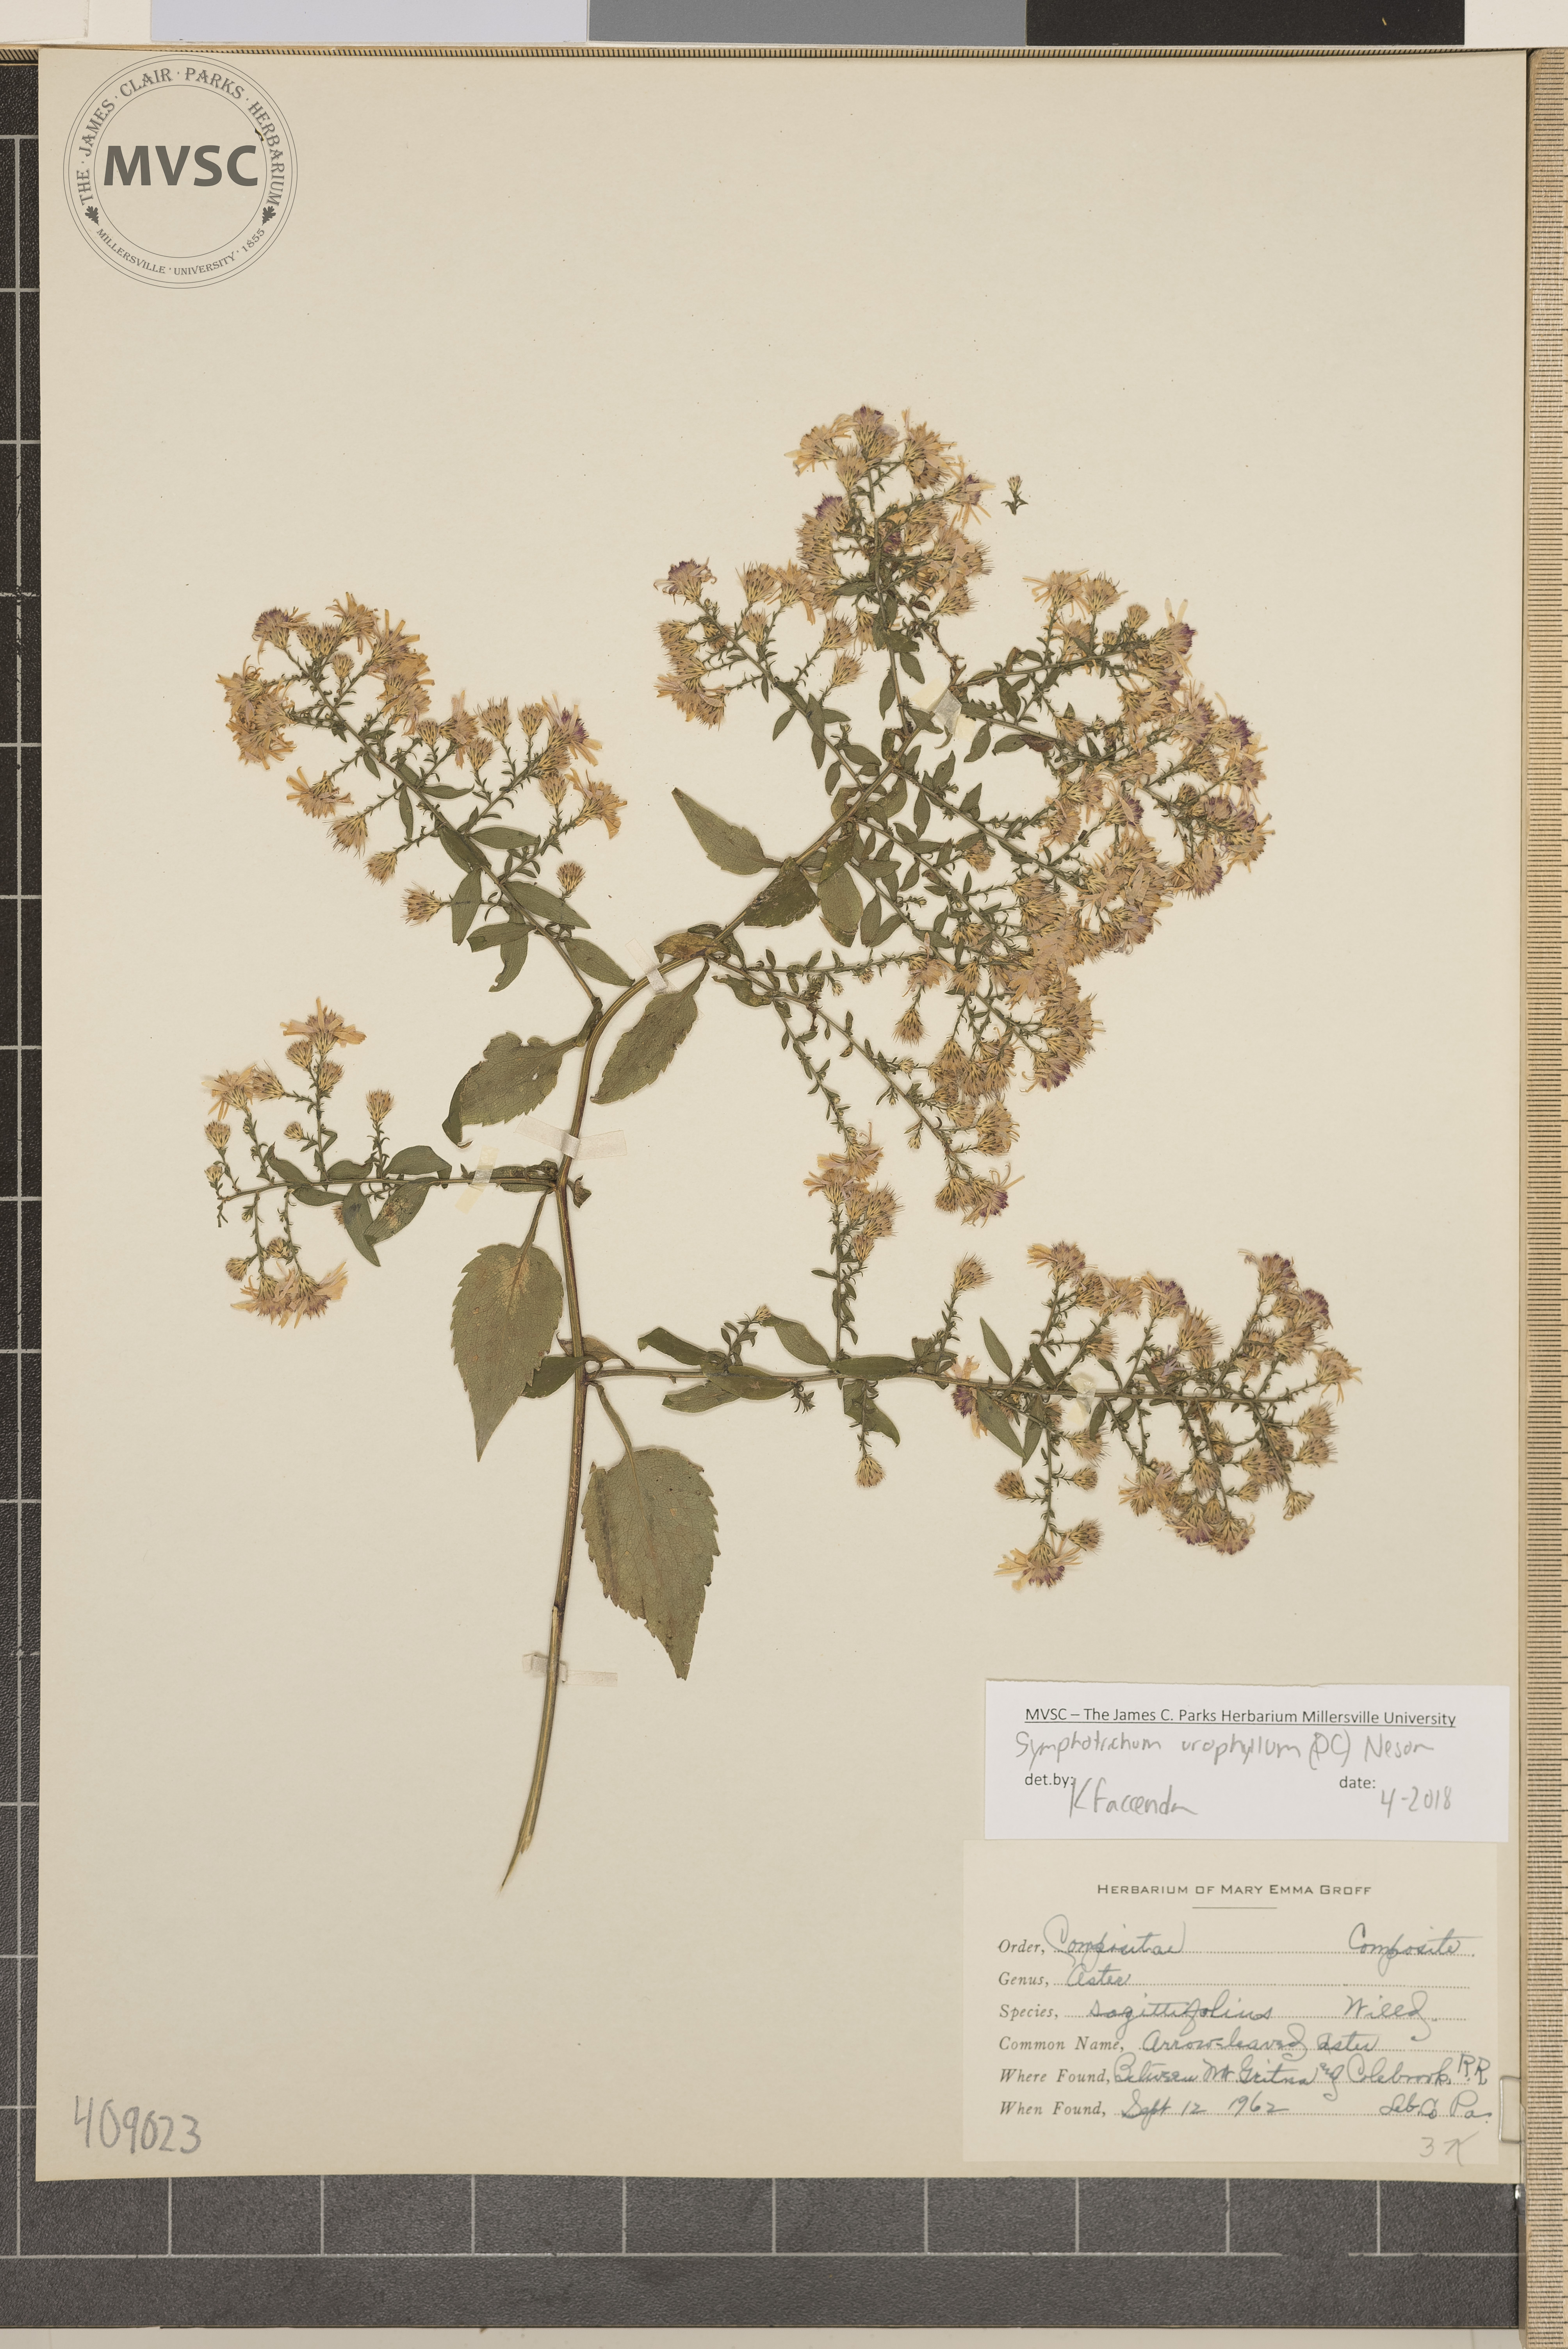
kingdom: Plantae
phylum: Tracheophyta
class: Magnoliopsida
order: Asterales
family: Asteraceae
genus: Symphyotrichum
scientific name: Symphyotrichum urophyllum
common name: Arrow-leaved Aster
